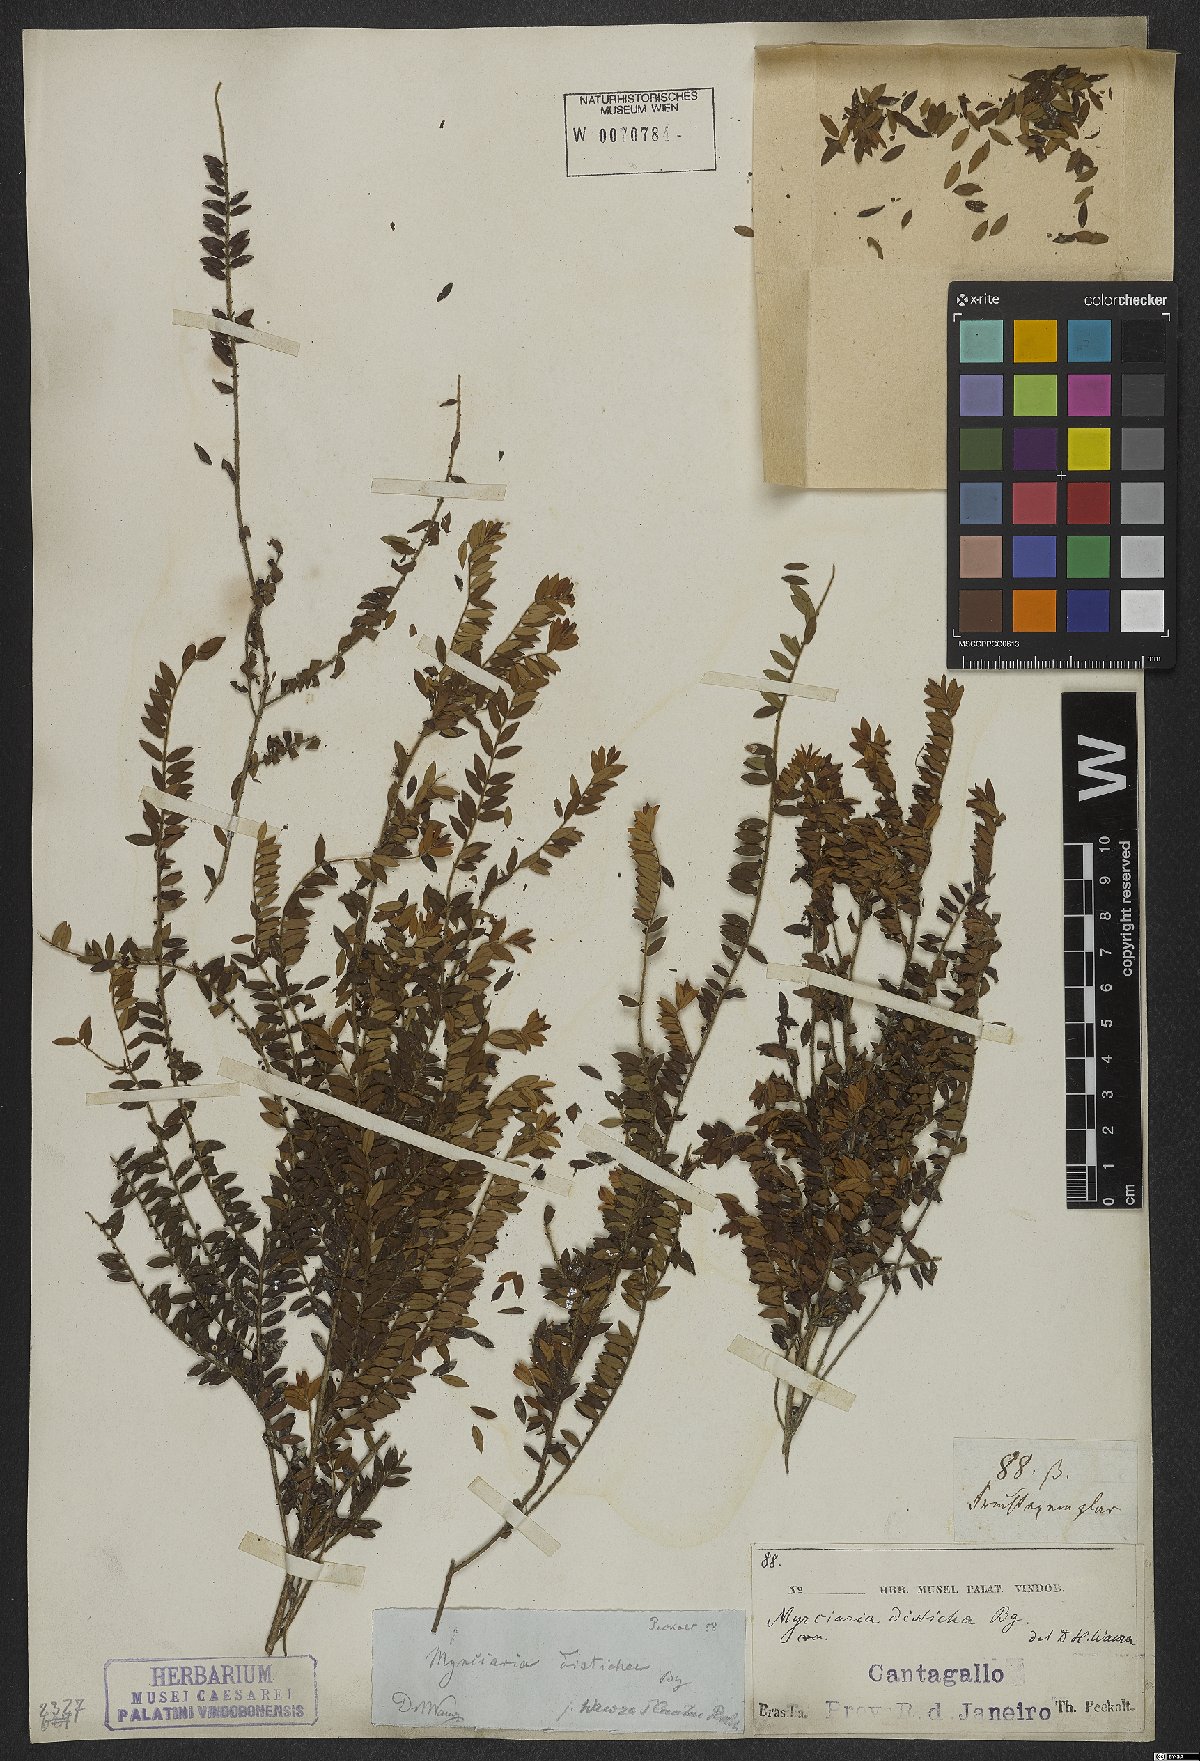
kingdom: Plantae
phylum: Tracheophyta
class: Magnoliopsida
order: Myrtales
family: Myrtaceae
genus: Myrciaria
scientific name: Myrciaria disticha
